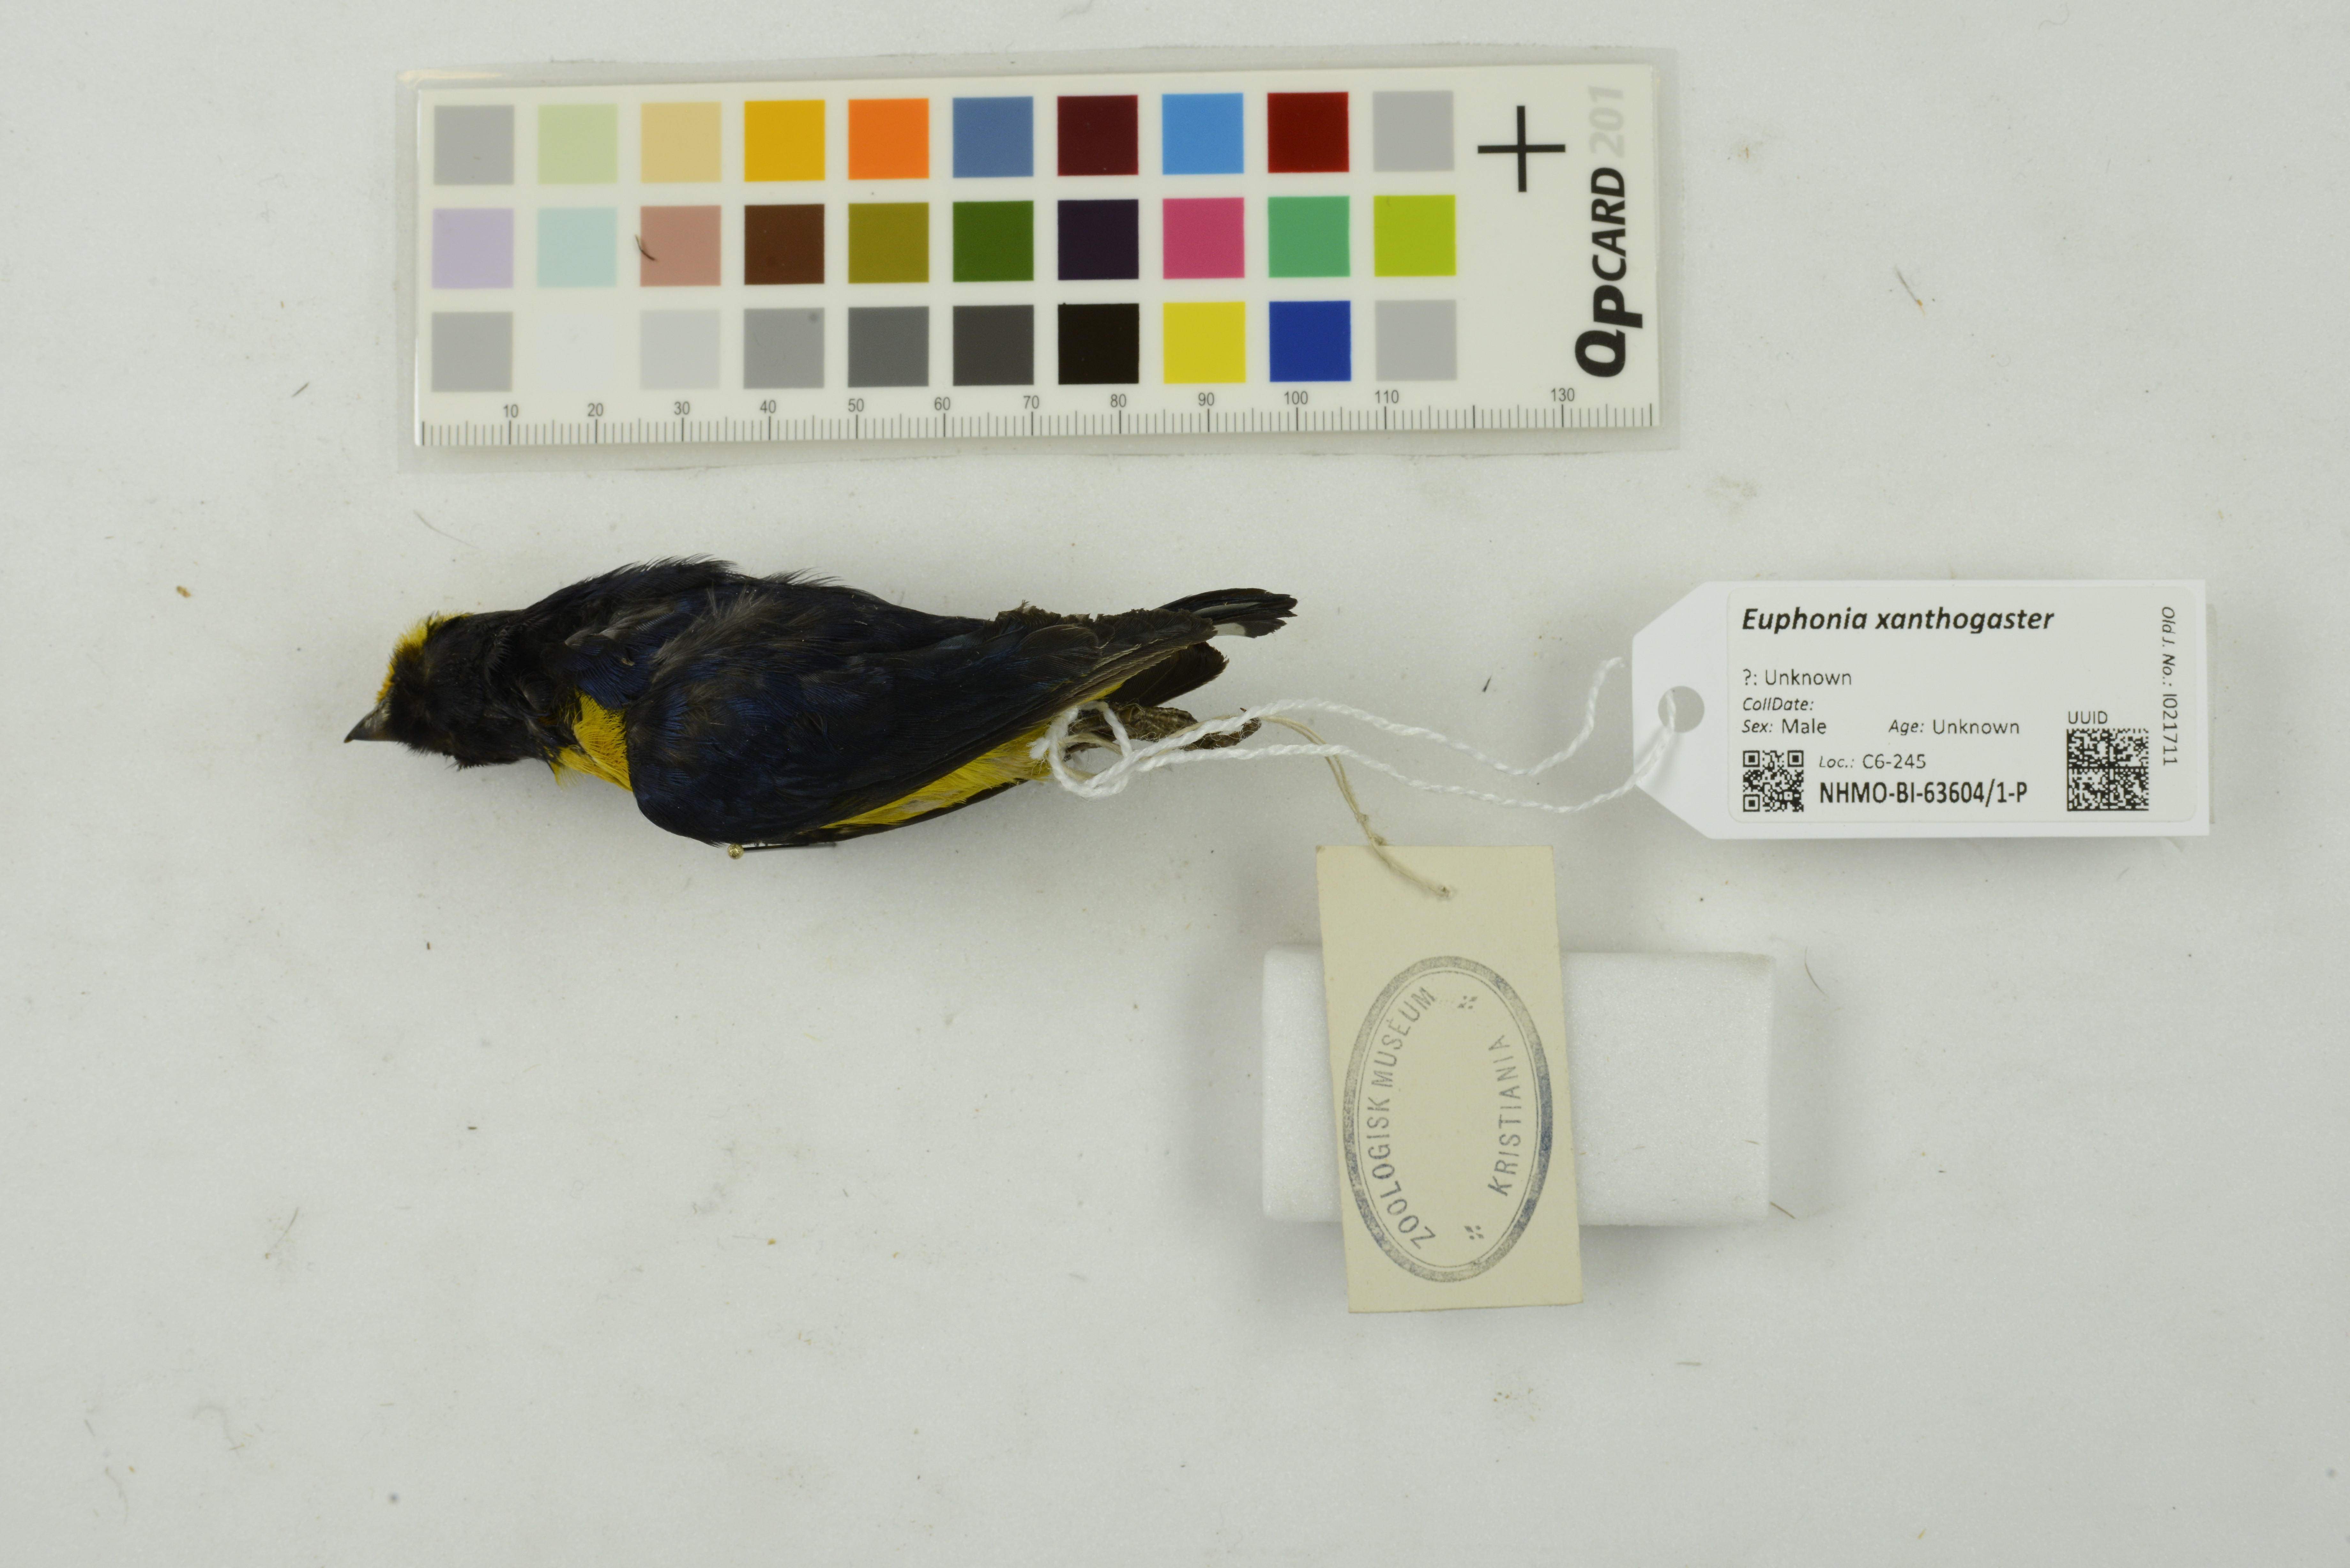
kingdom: Animalia
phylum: Chordata
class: Aves
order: Passeriformes
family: Fringillidae
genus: Euphonia
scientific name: Euphonia xanthogaster
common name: Orange-bellied euphonia
